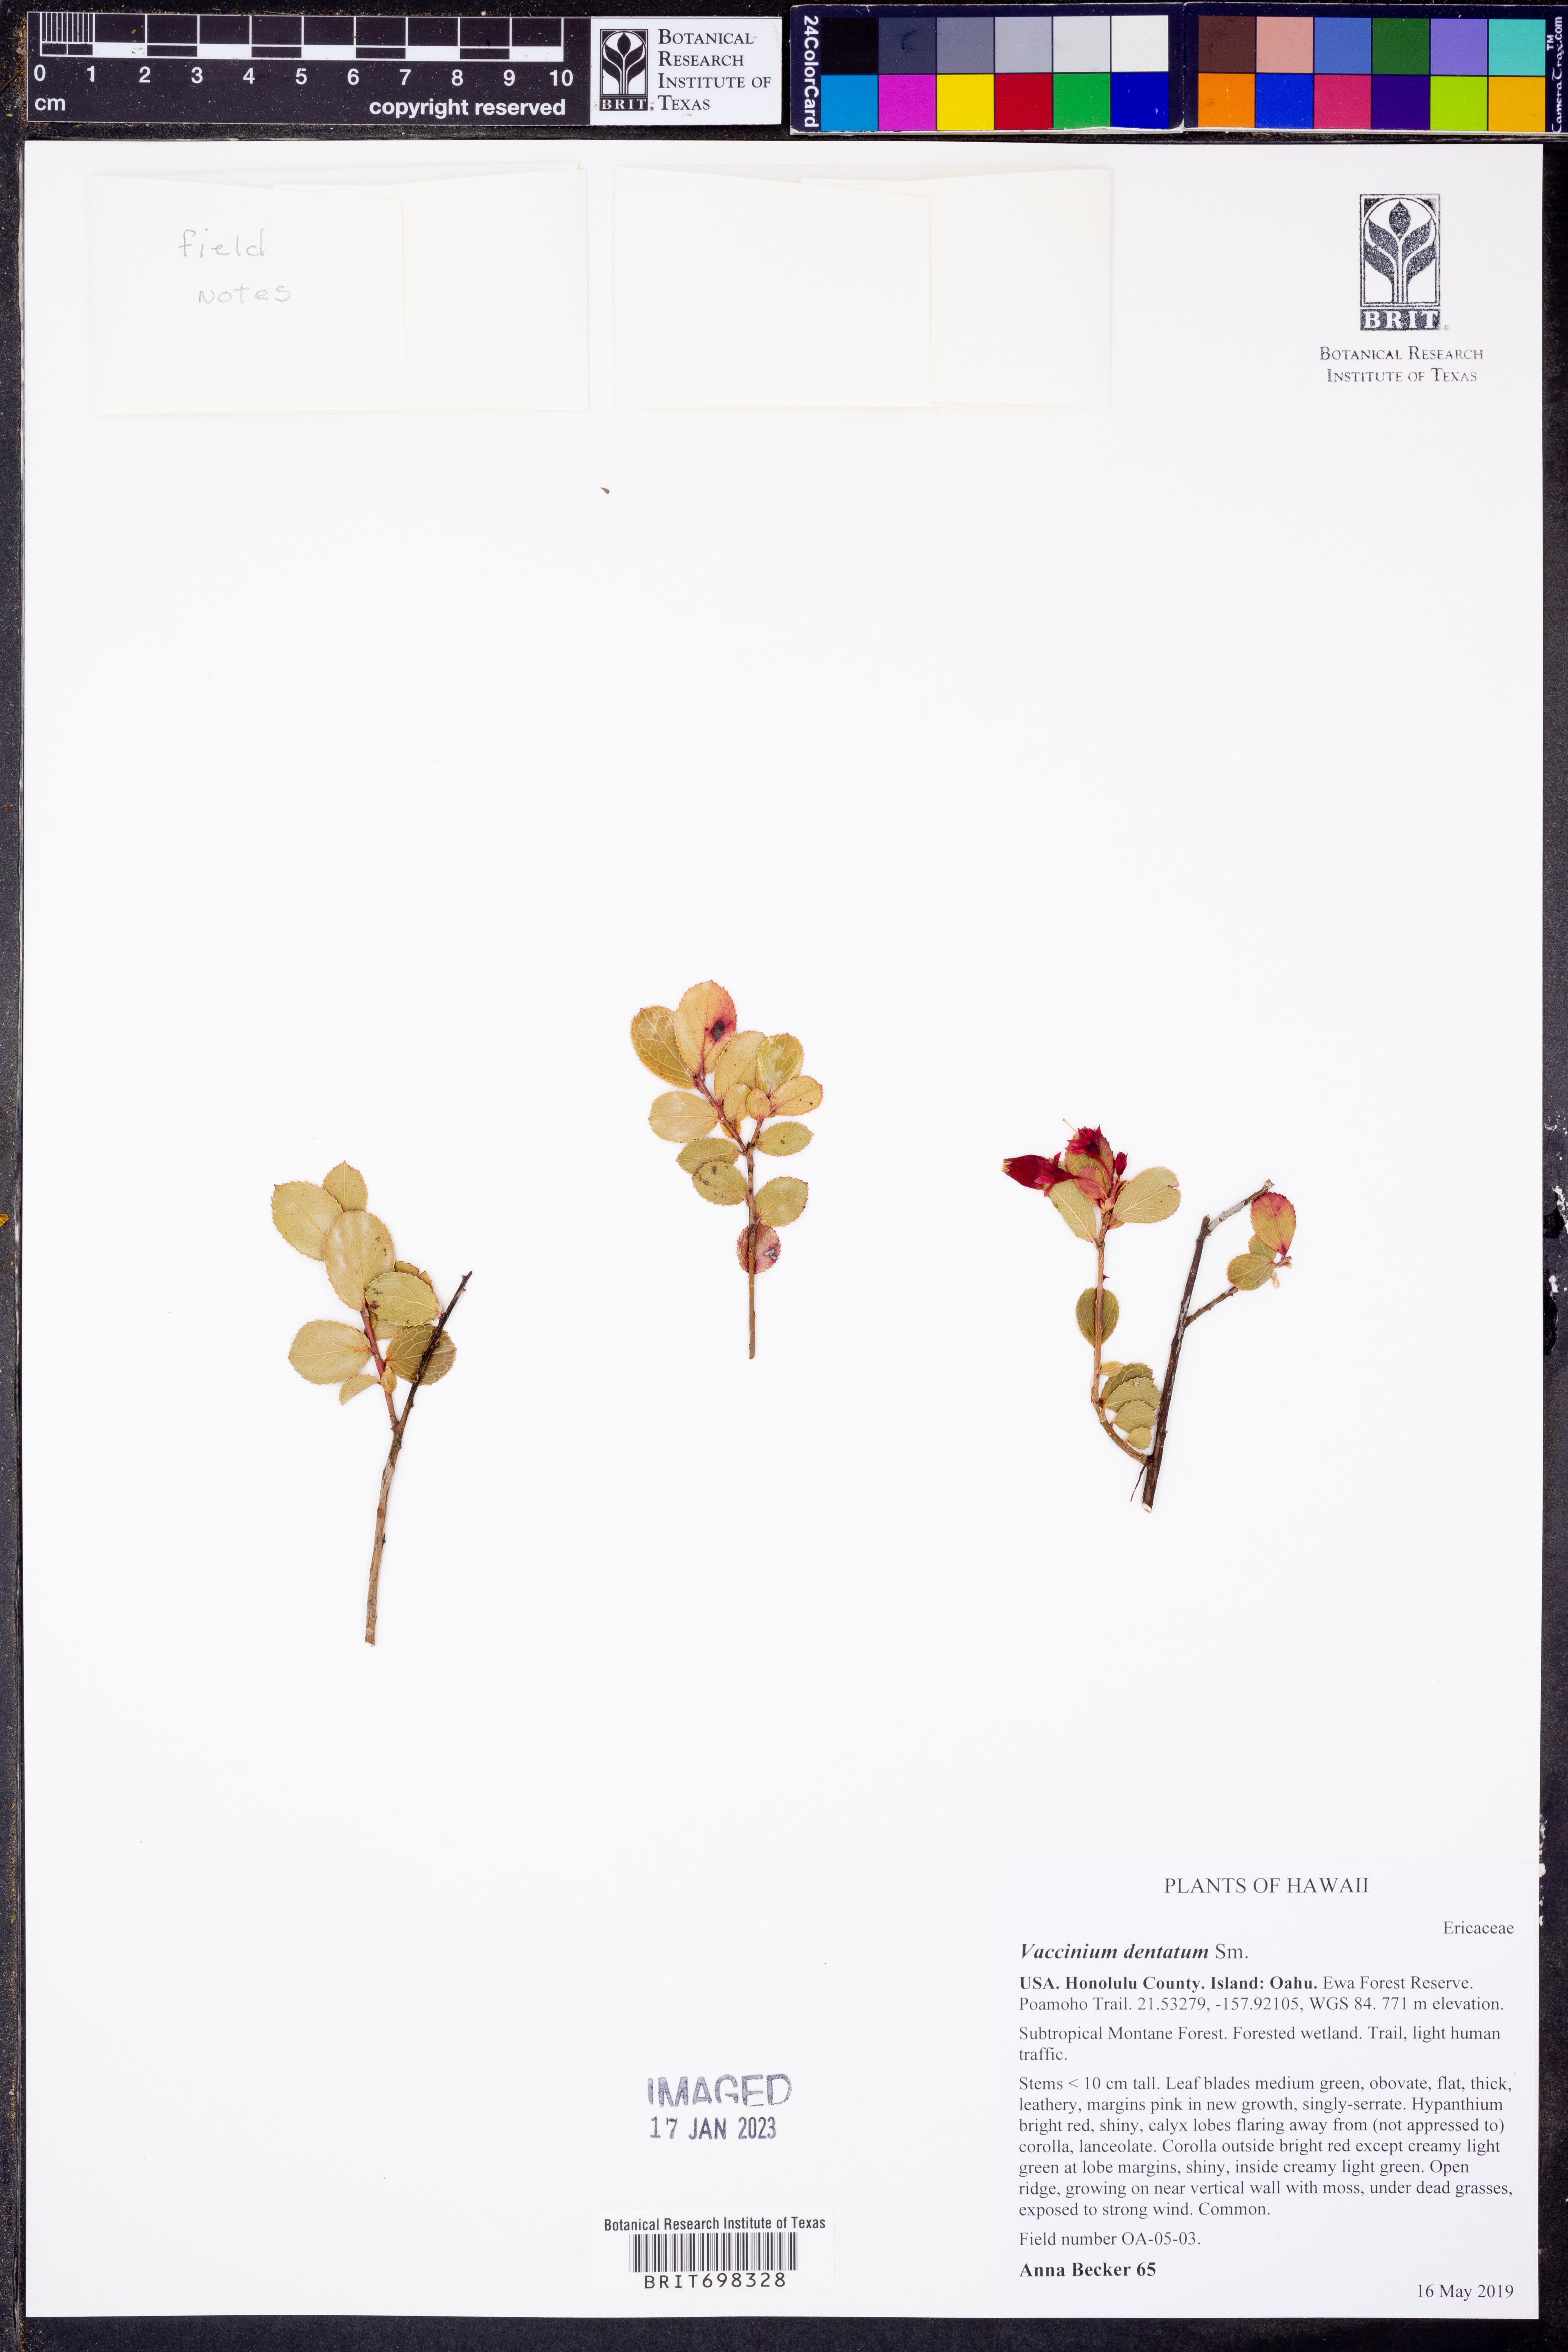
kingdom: Plantae
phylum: Tracheophyta
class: Magnoliopsida
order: Ericales
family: Ericaceae
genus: Vaccinium
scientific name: Vaccinium dentatum
